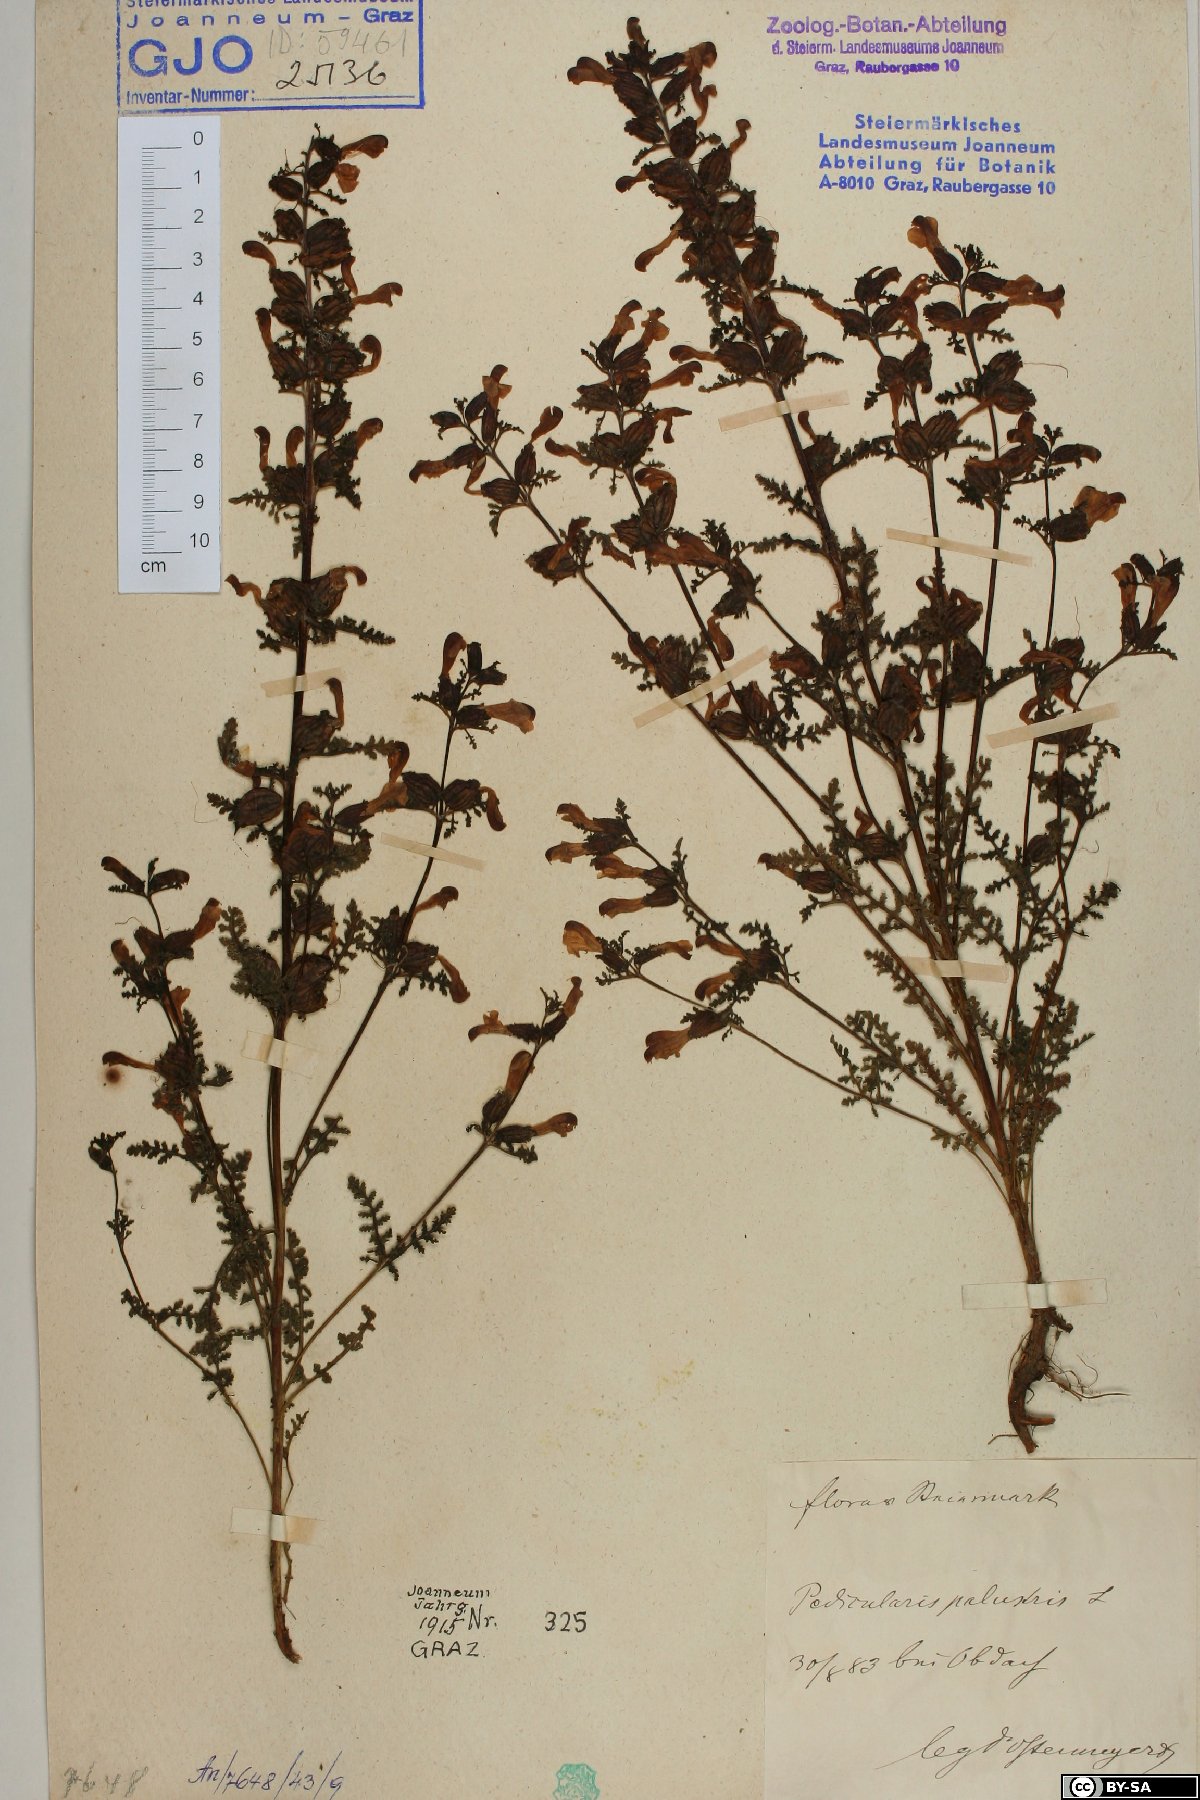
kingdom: Plantae
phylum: Tracheophyta
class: Magnoliopsida
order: Lamiales
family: Orobanchaceae
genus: Pedicularis
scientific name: Pedicularis palustris
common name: Marsh lousewort
